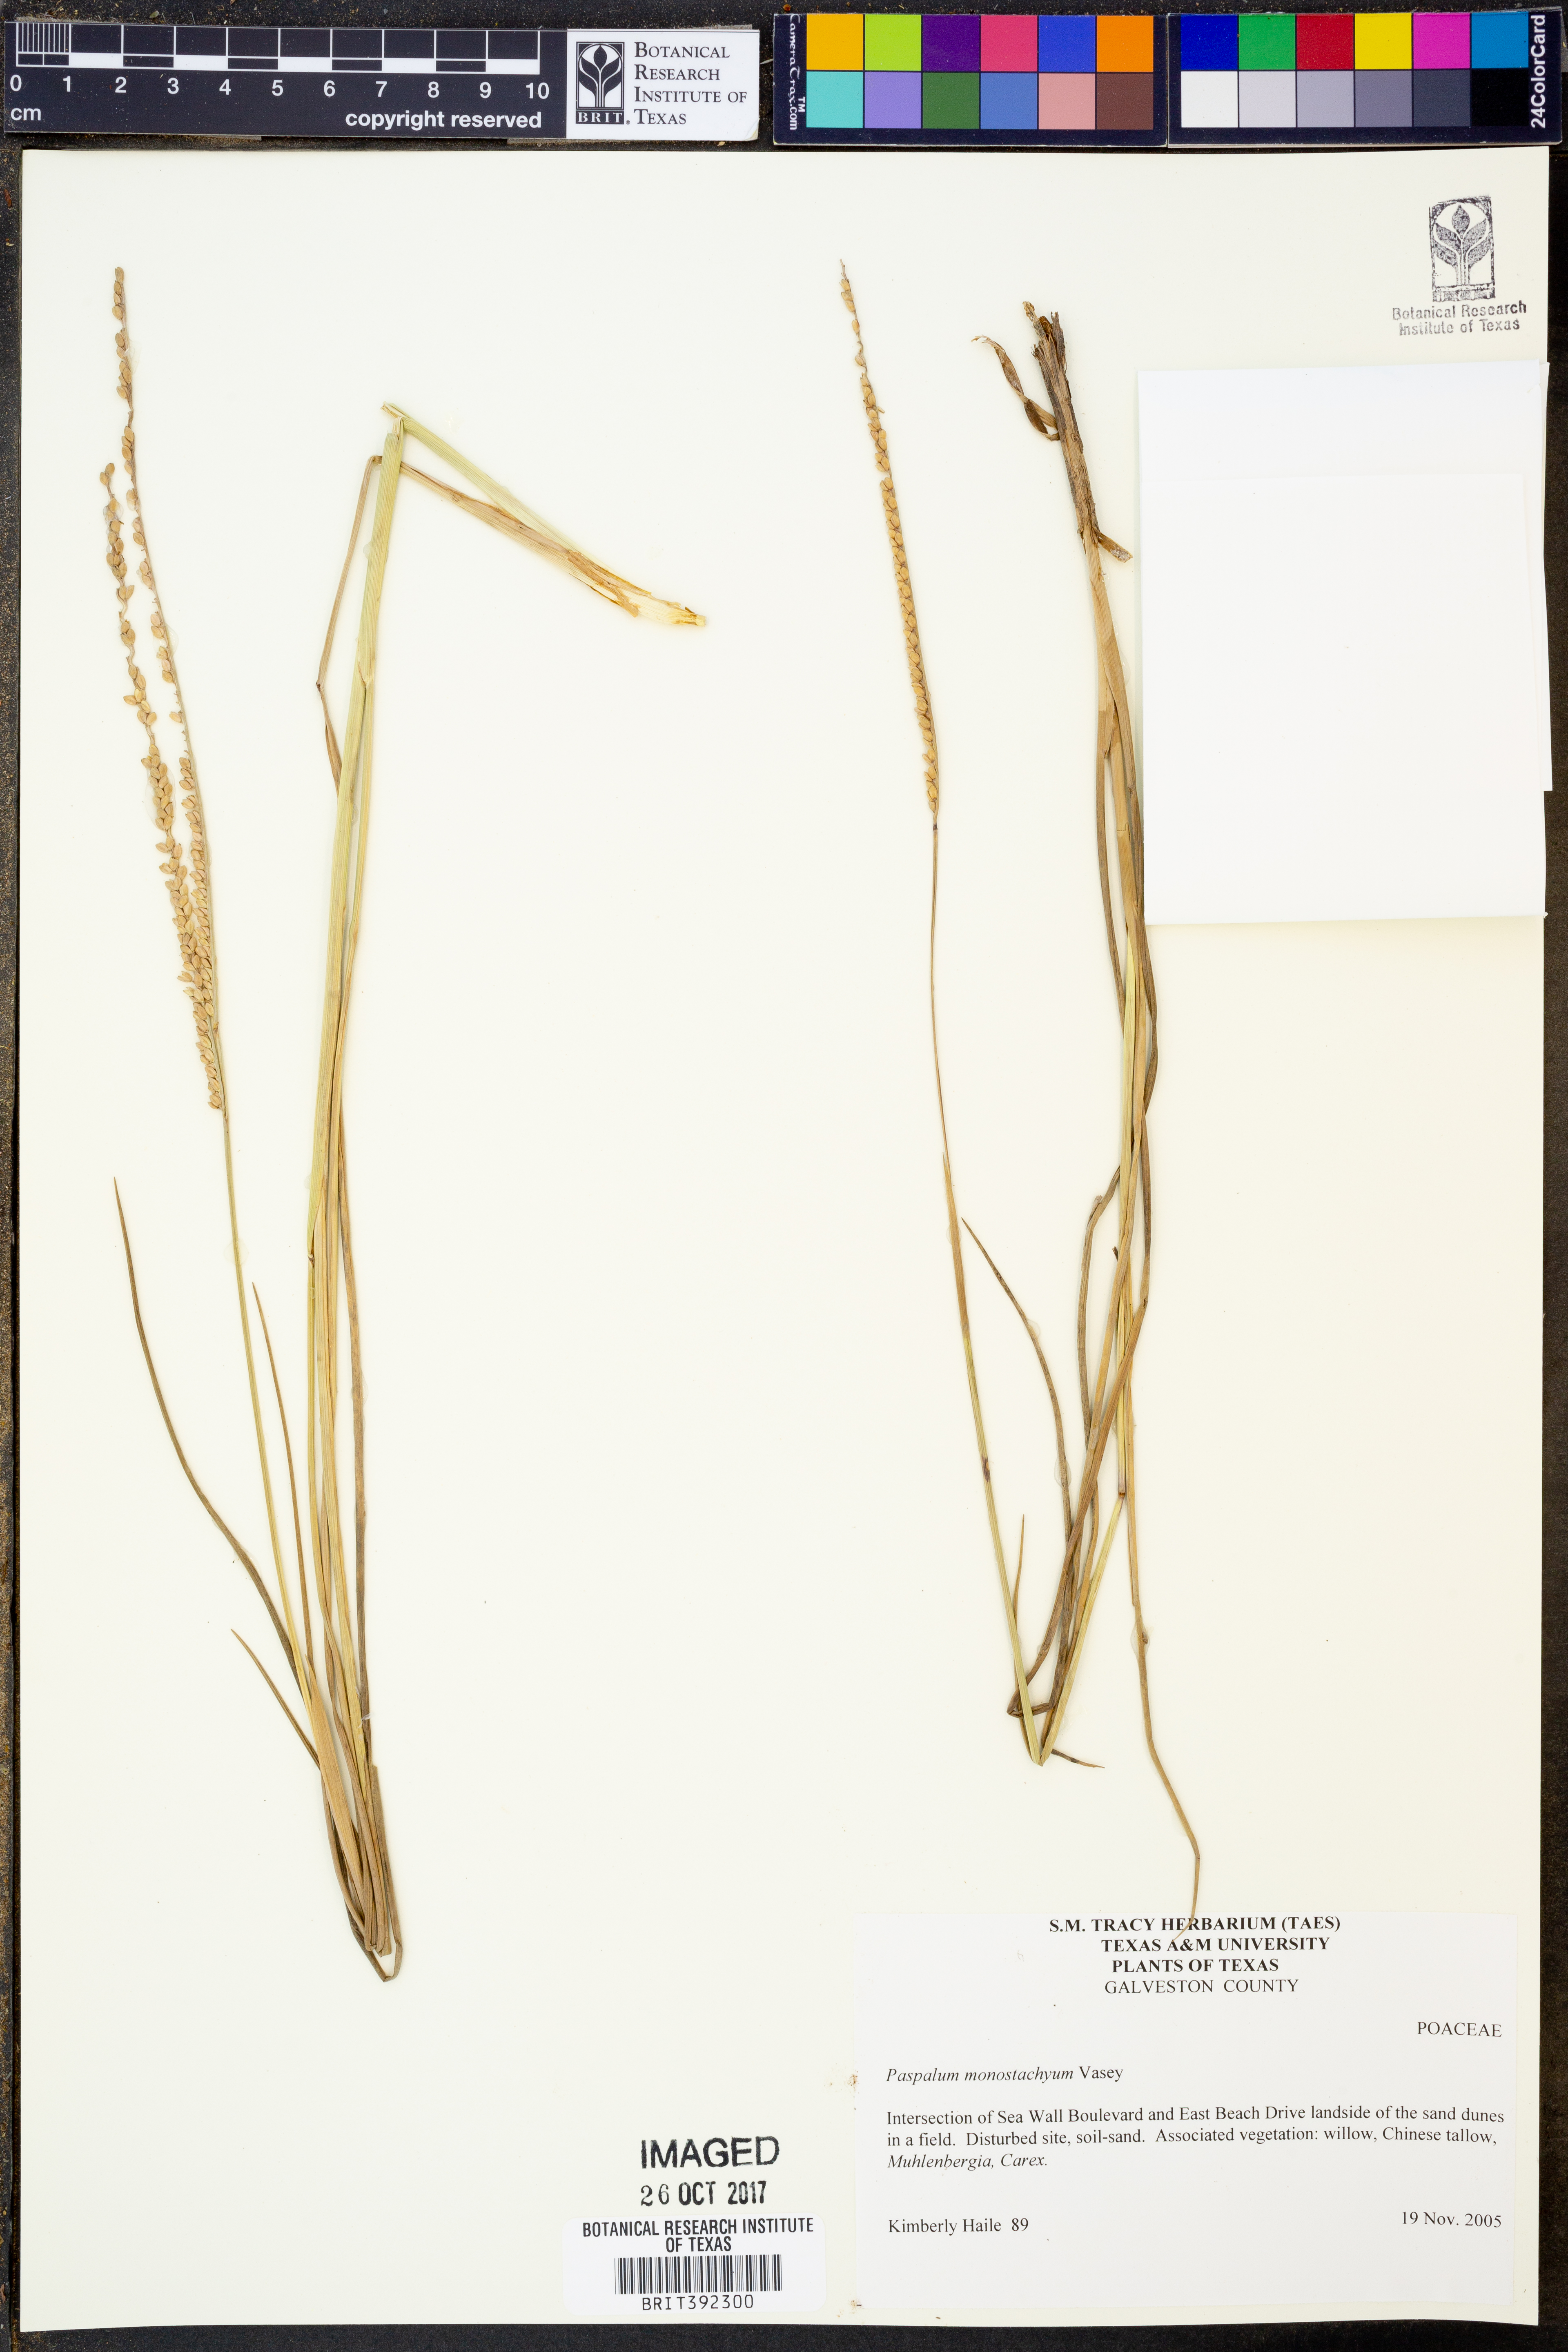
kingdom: Plantae
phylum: Tracheophyta
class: Liliopsida
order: Poales
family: Poaceae
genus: Paspalum
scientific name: Paspalum monostachyum
